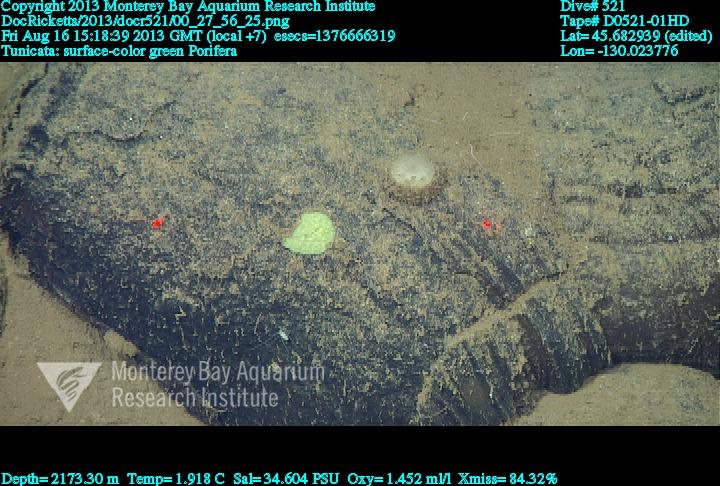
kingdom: Animalia
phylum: Porifera
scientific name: Porifera
